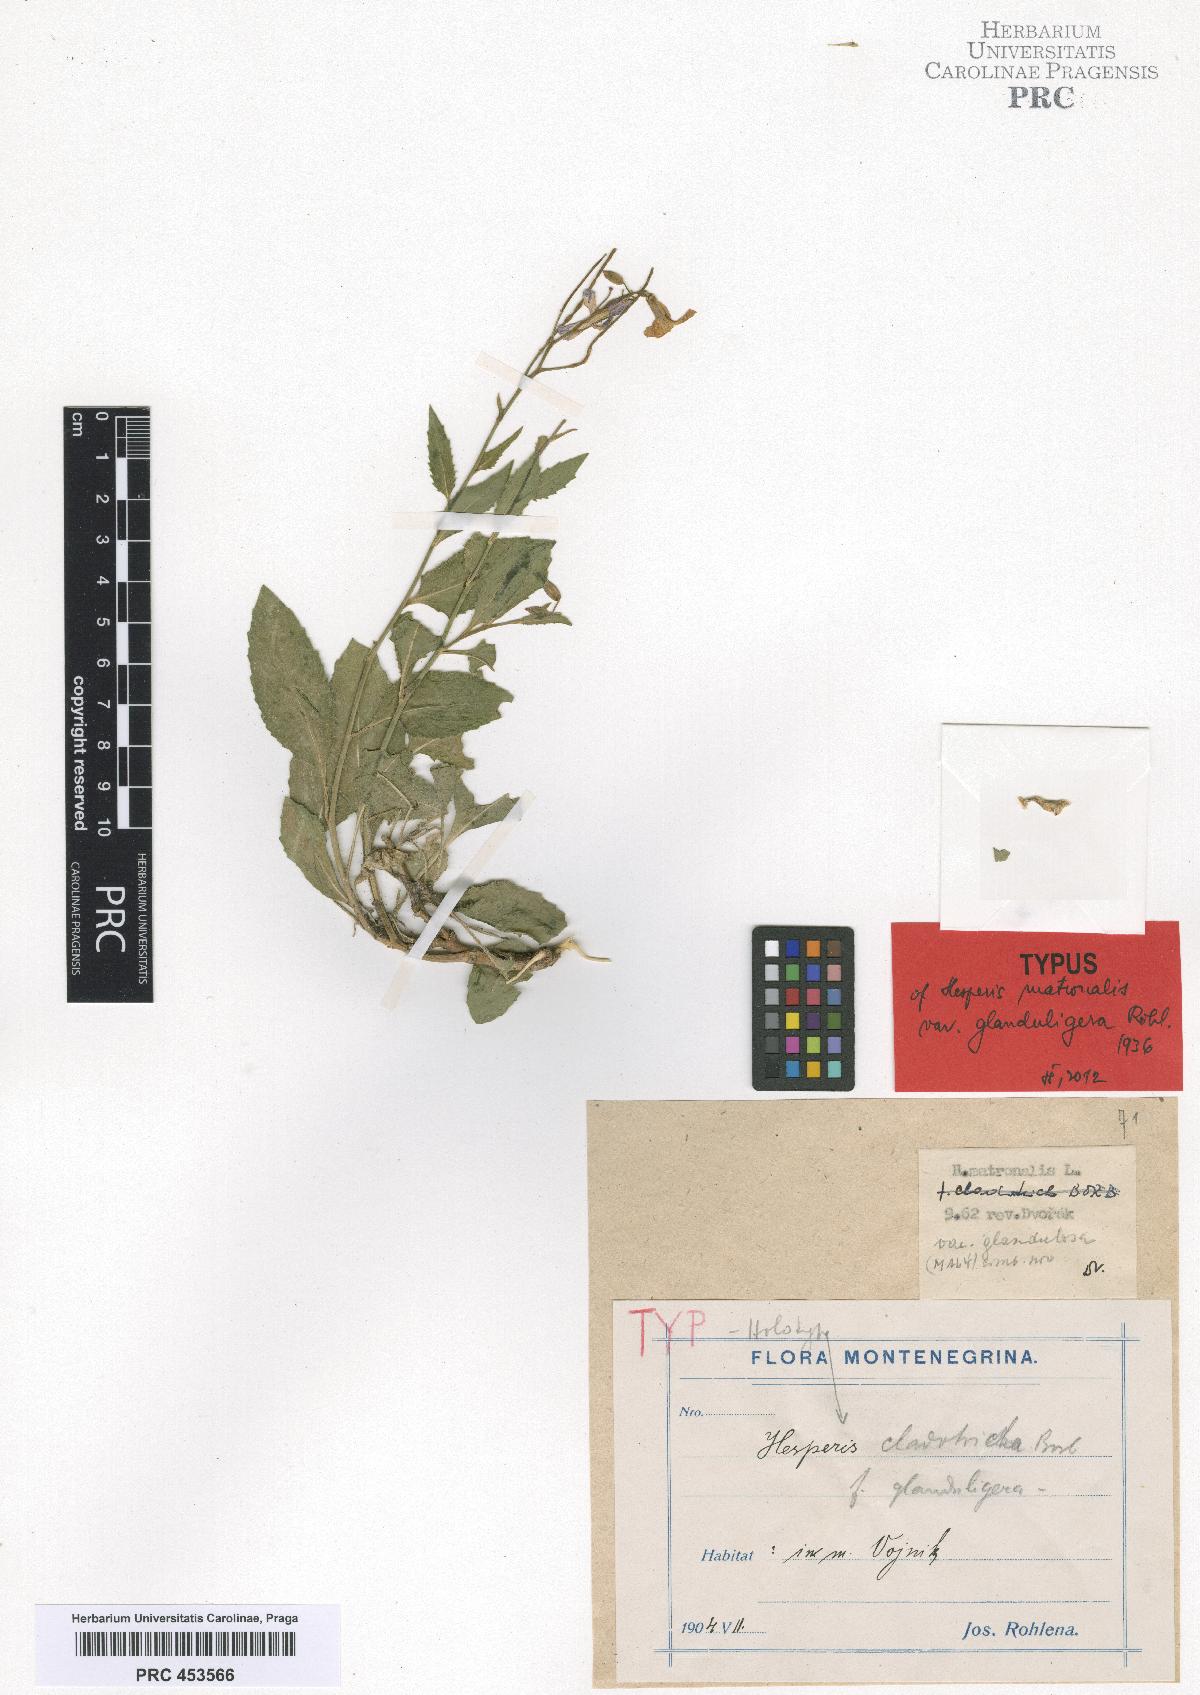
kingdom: Plantae
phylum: Tracheophyta
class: Magnoliopsida
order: Brassicales
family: Brassicaceae
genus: Hesperis
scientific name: Hesperis matronalis
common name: Dame's-violet
